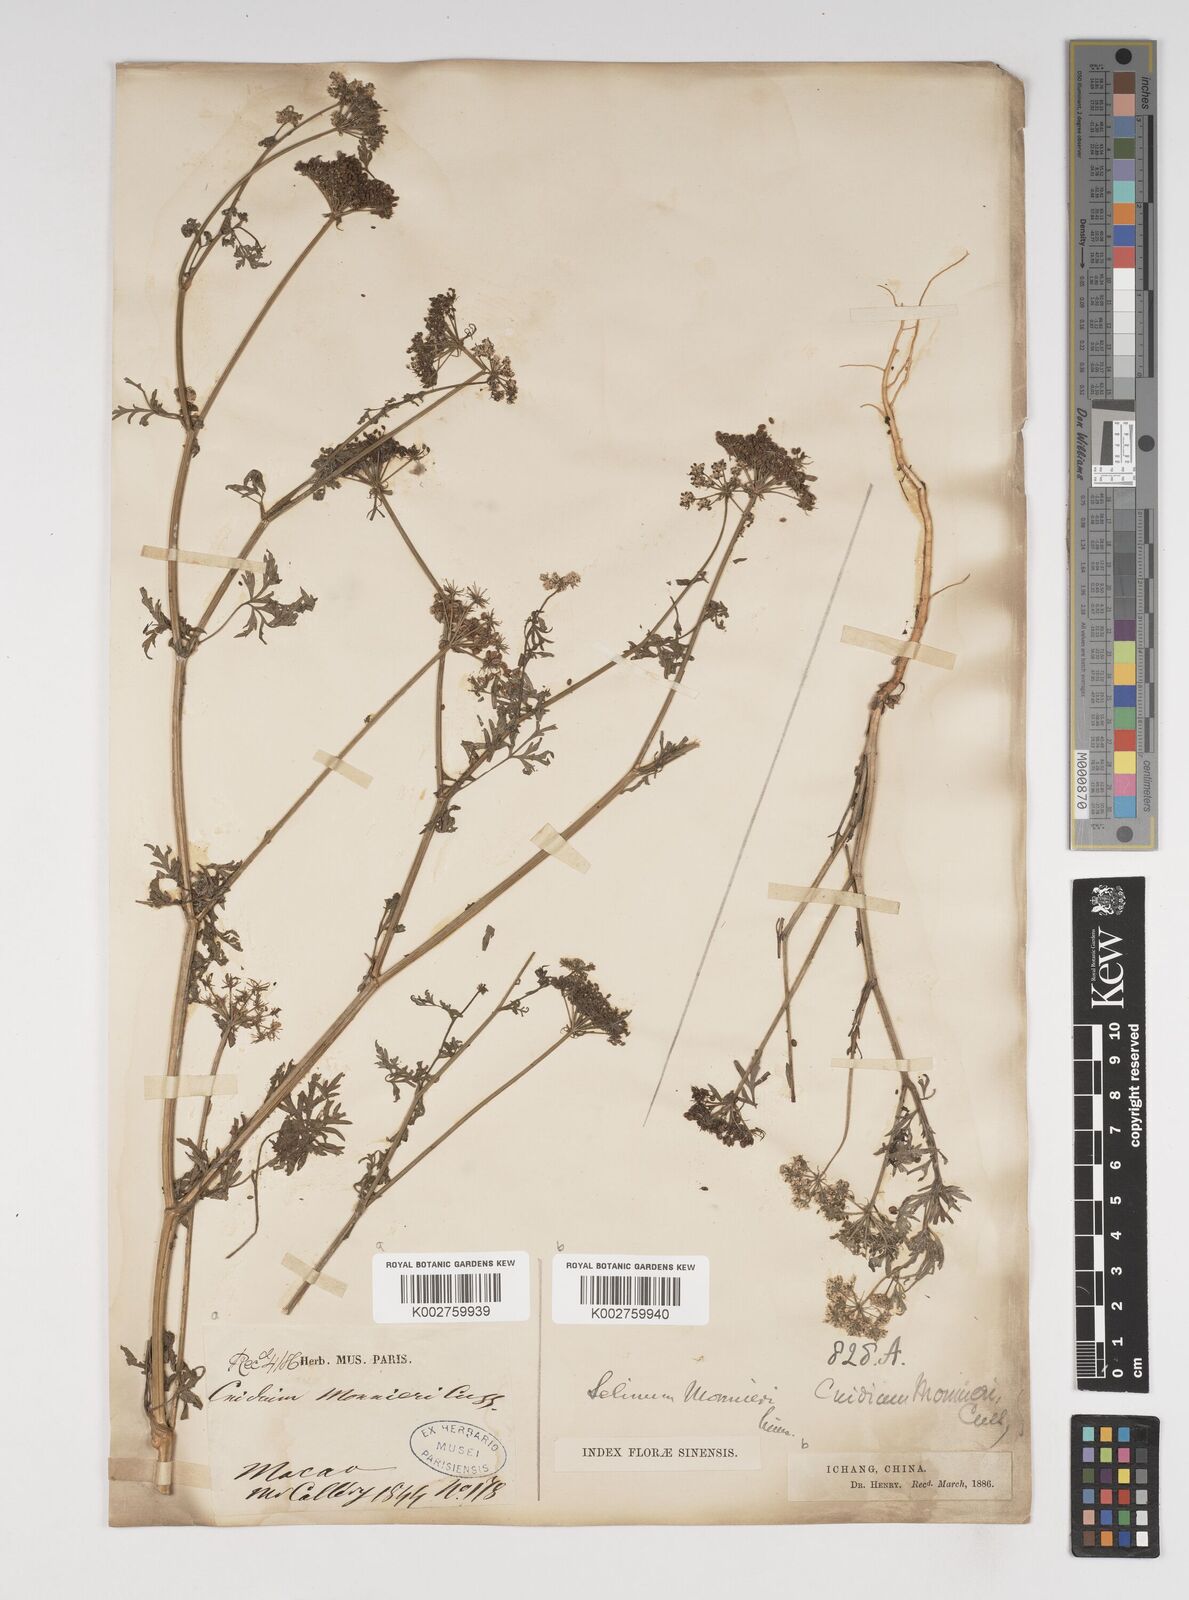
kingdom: Plantae
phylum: Tracheophyta
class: Magnoliopsida
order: Apiales
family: Apiaceae
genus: Cnidium
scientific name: Cnidium monnieri
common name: Monnier's snowparsley
